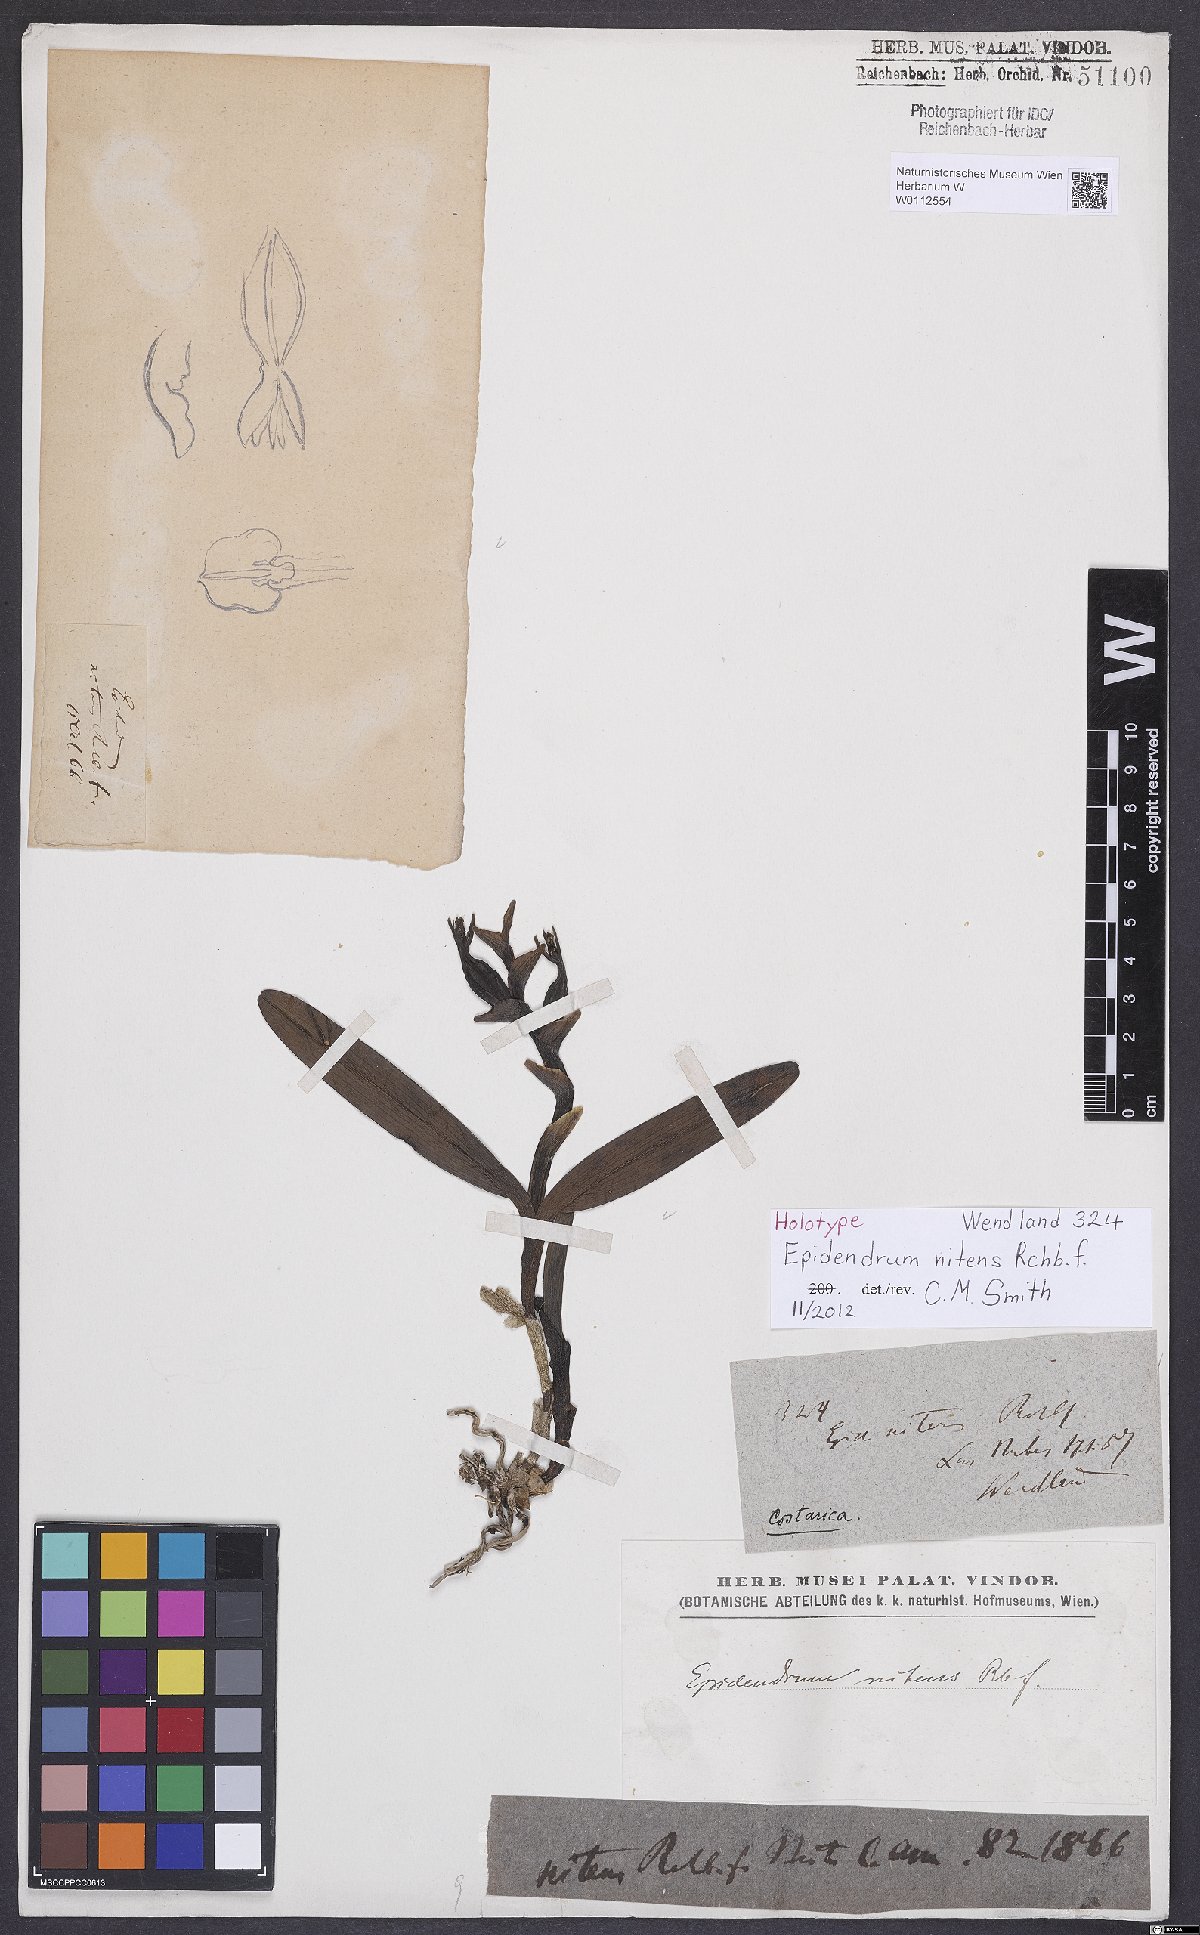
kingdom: Plantae
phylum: Tracheophyta
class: Liliopsida
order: Asparagales
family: Orchidaceae
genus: Epidendrum
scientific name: Epidendrum nitens
